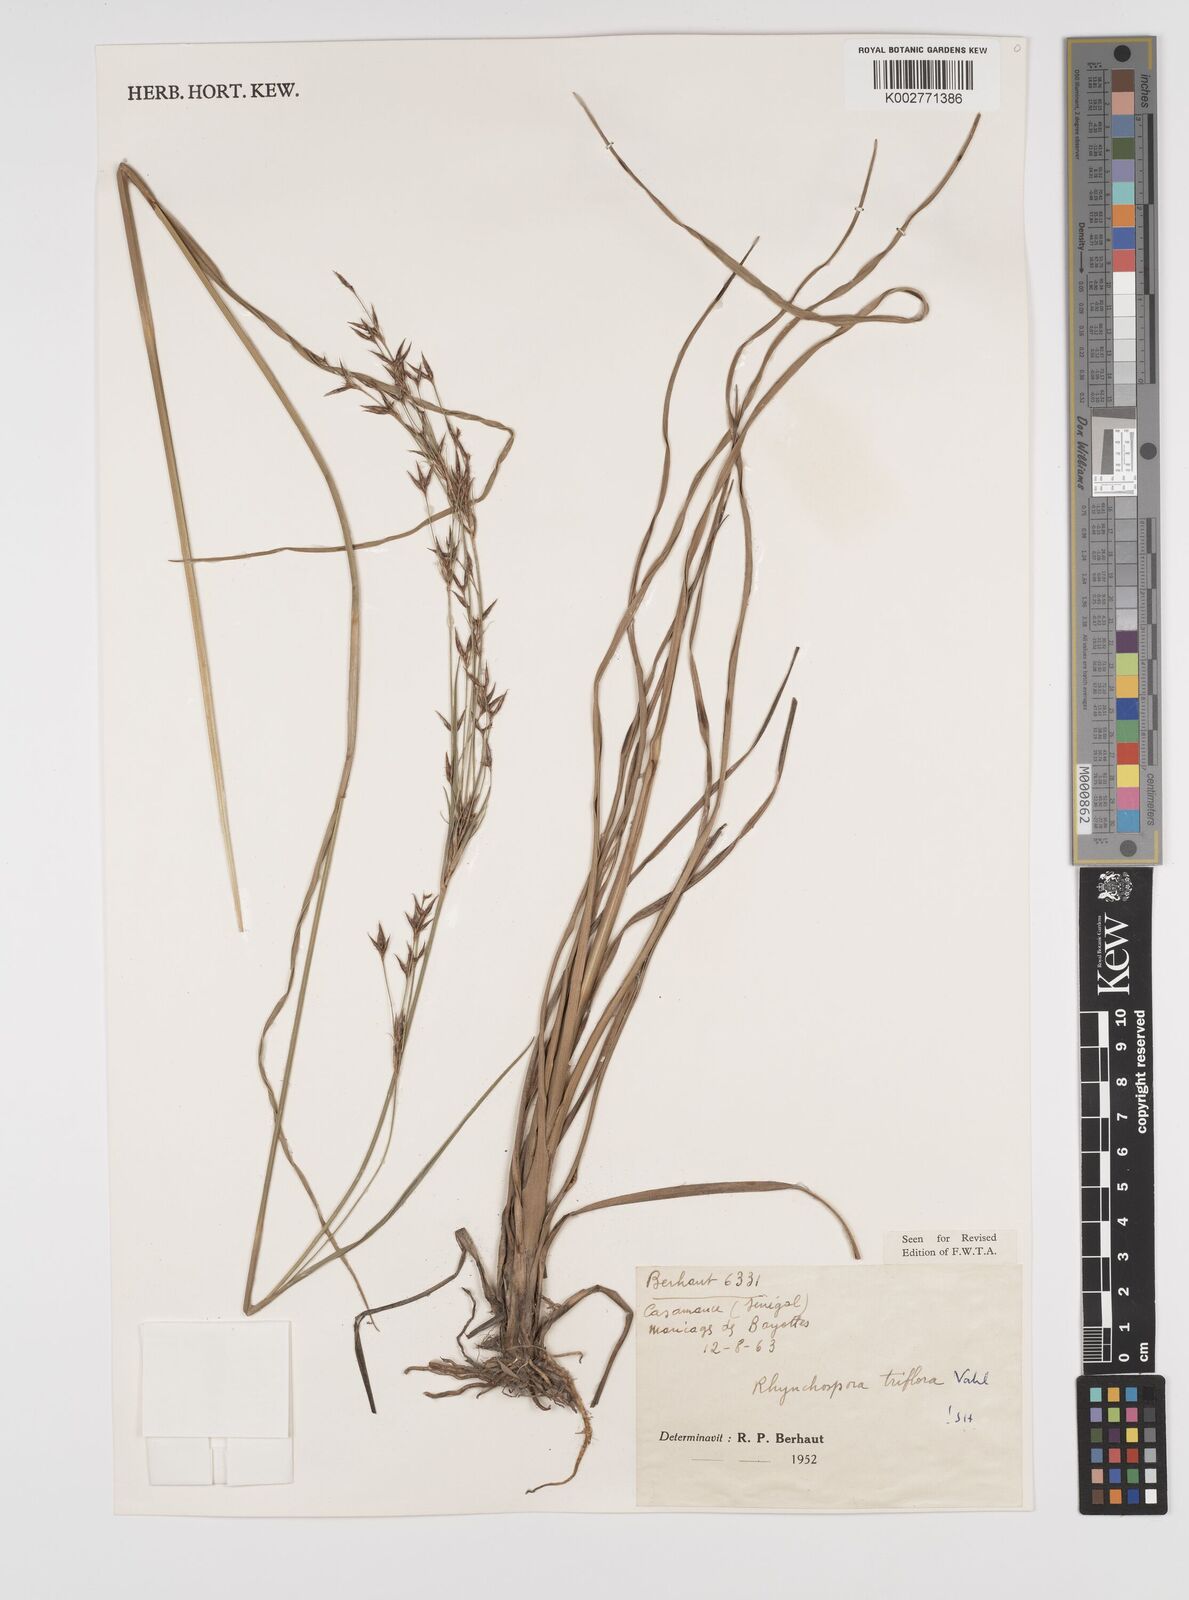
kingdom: Plantae
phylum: Tracheophyta
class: Liliopsida
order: Poales
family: Cyperaceae
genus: Rhynchospora
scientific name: Rhynchospora triflora
